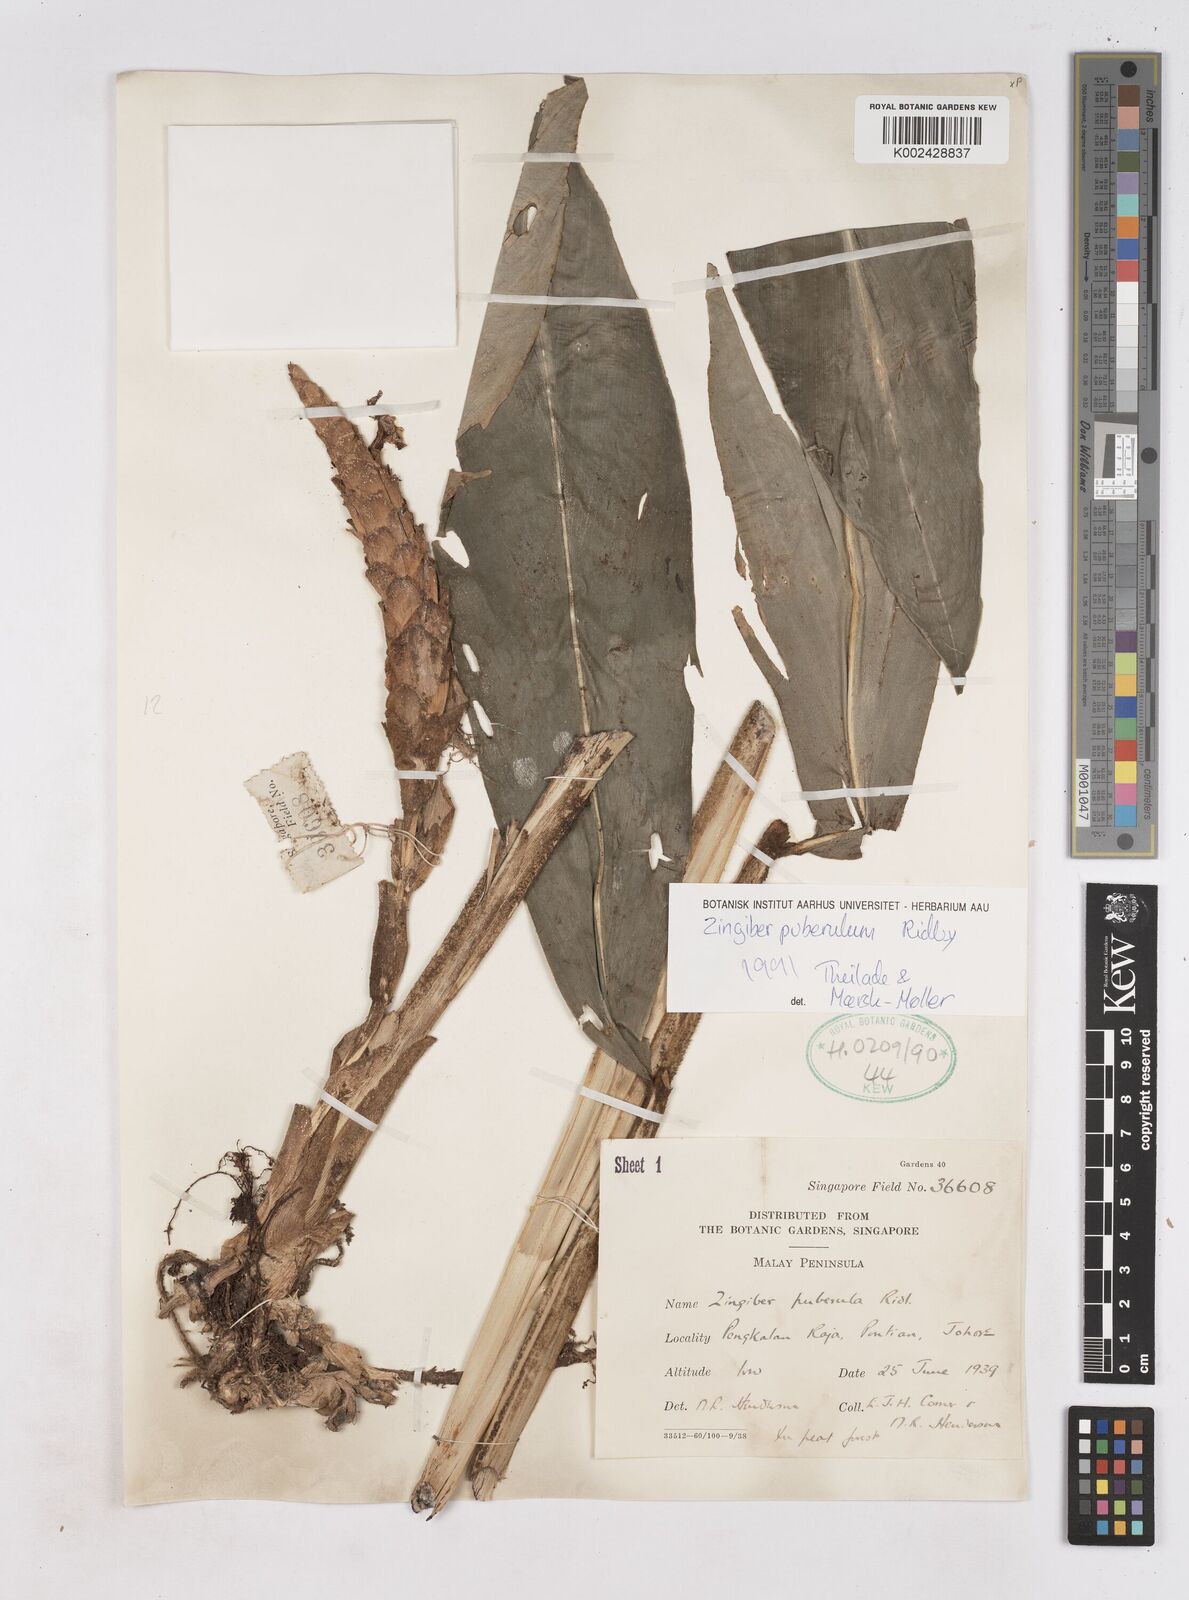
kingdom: Plantae
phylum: Tracheophyta
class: Liliopsida
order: Zingiberales
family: Zingiberaceae
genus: Zingiber
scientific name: Zingiber puberulum
